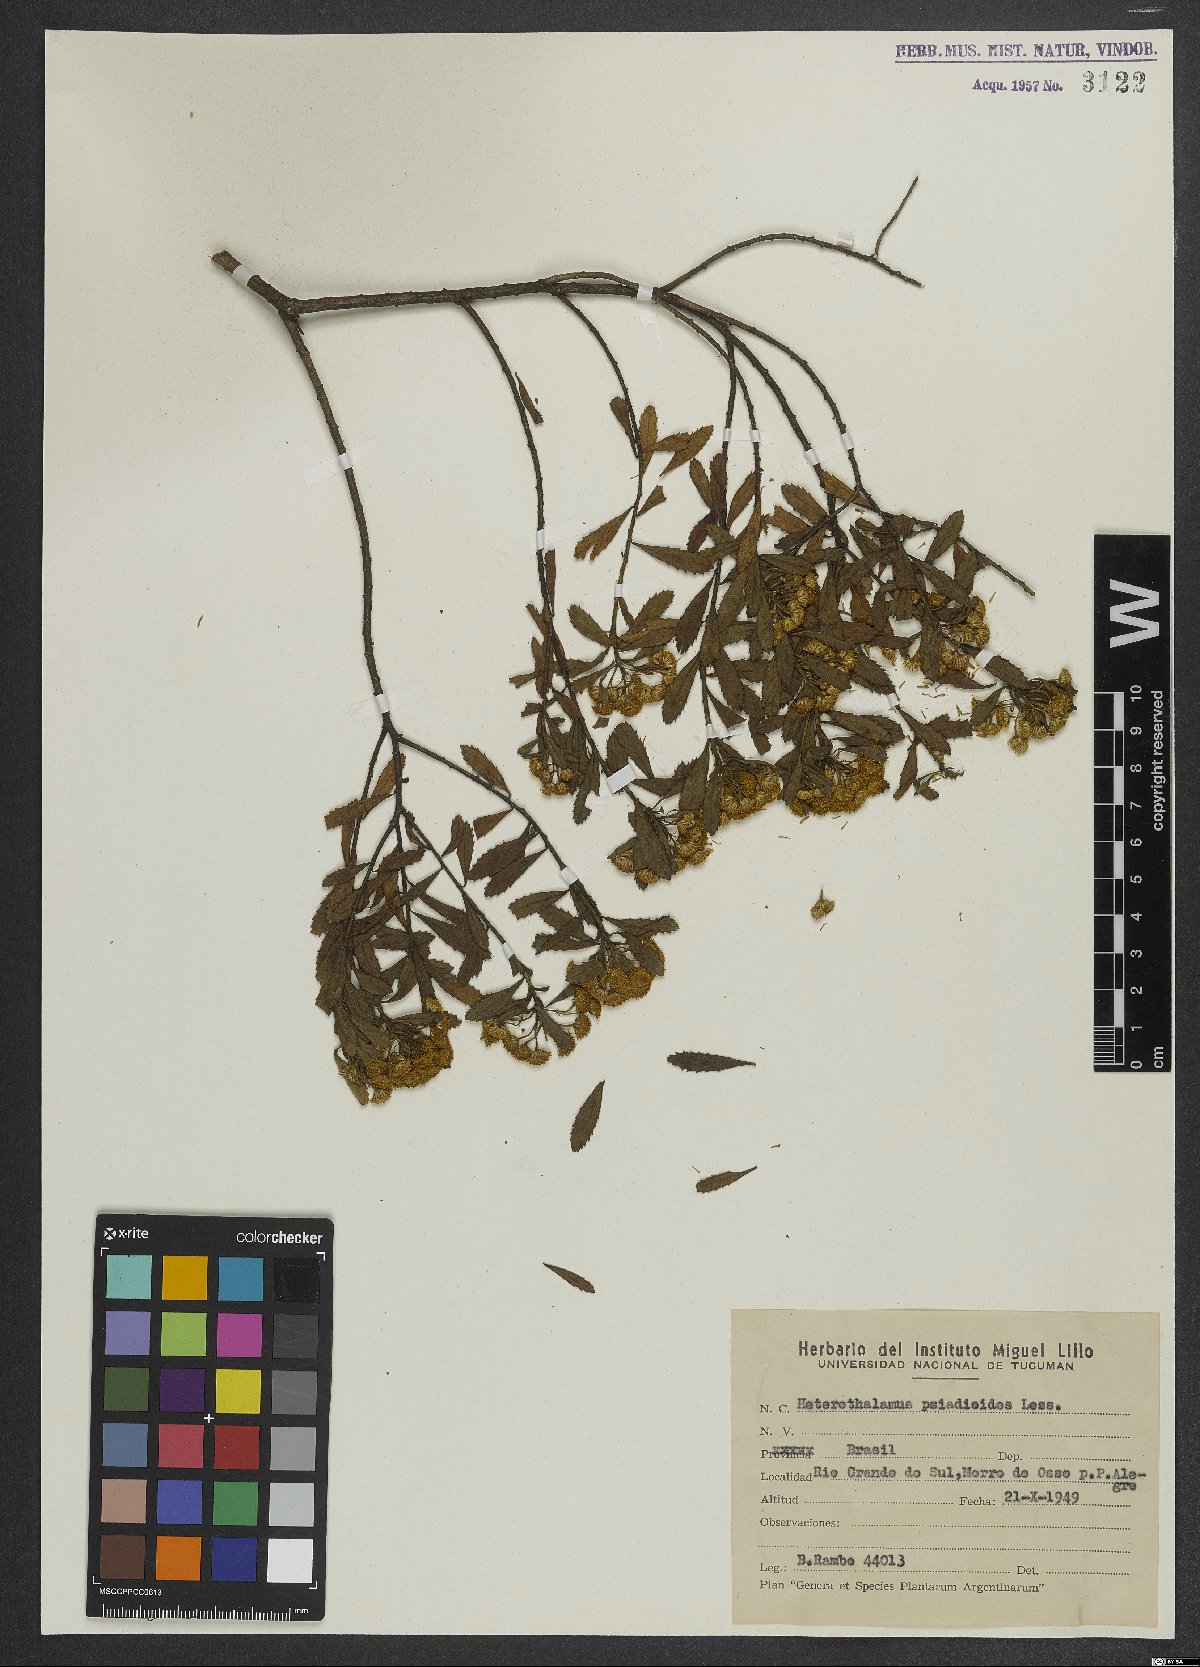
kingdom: Plantae
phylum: Tracheophyta
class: Magnoliopsida
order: Asterales
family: Asteraceae
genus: Baccharis
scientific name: Baccharis psiadioides
